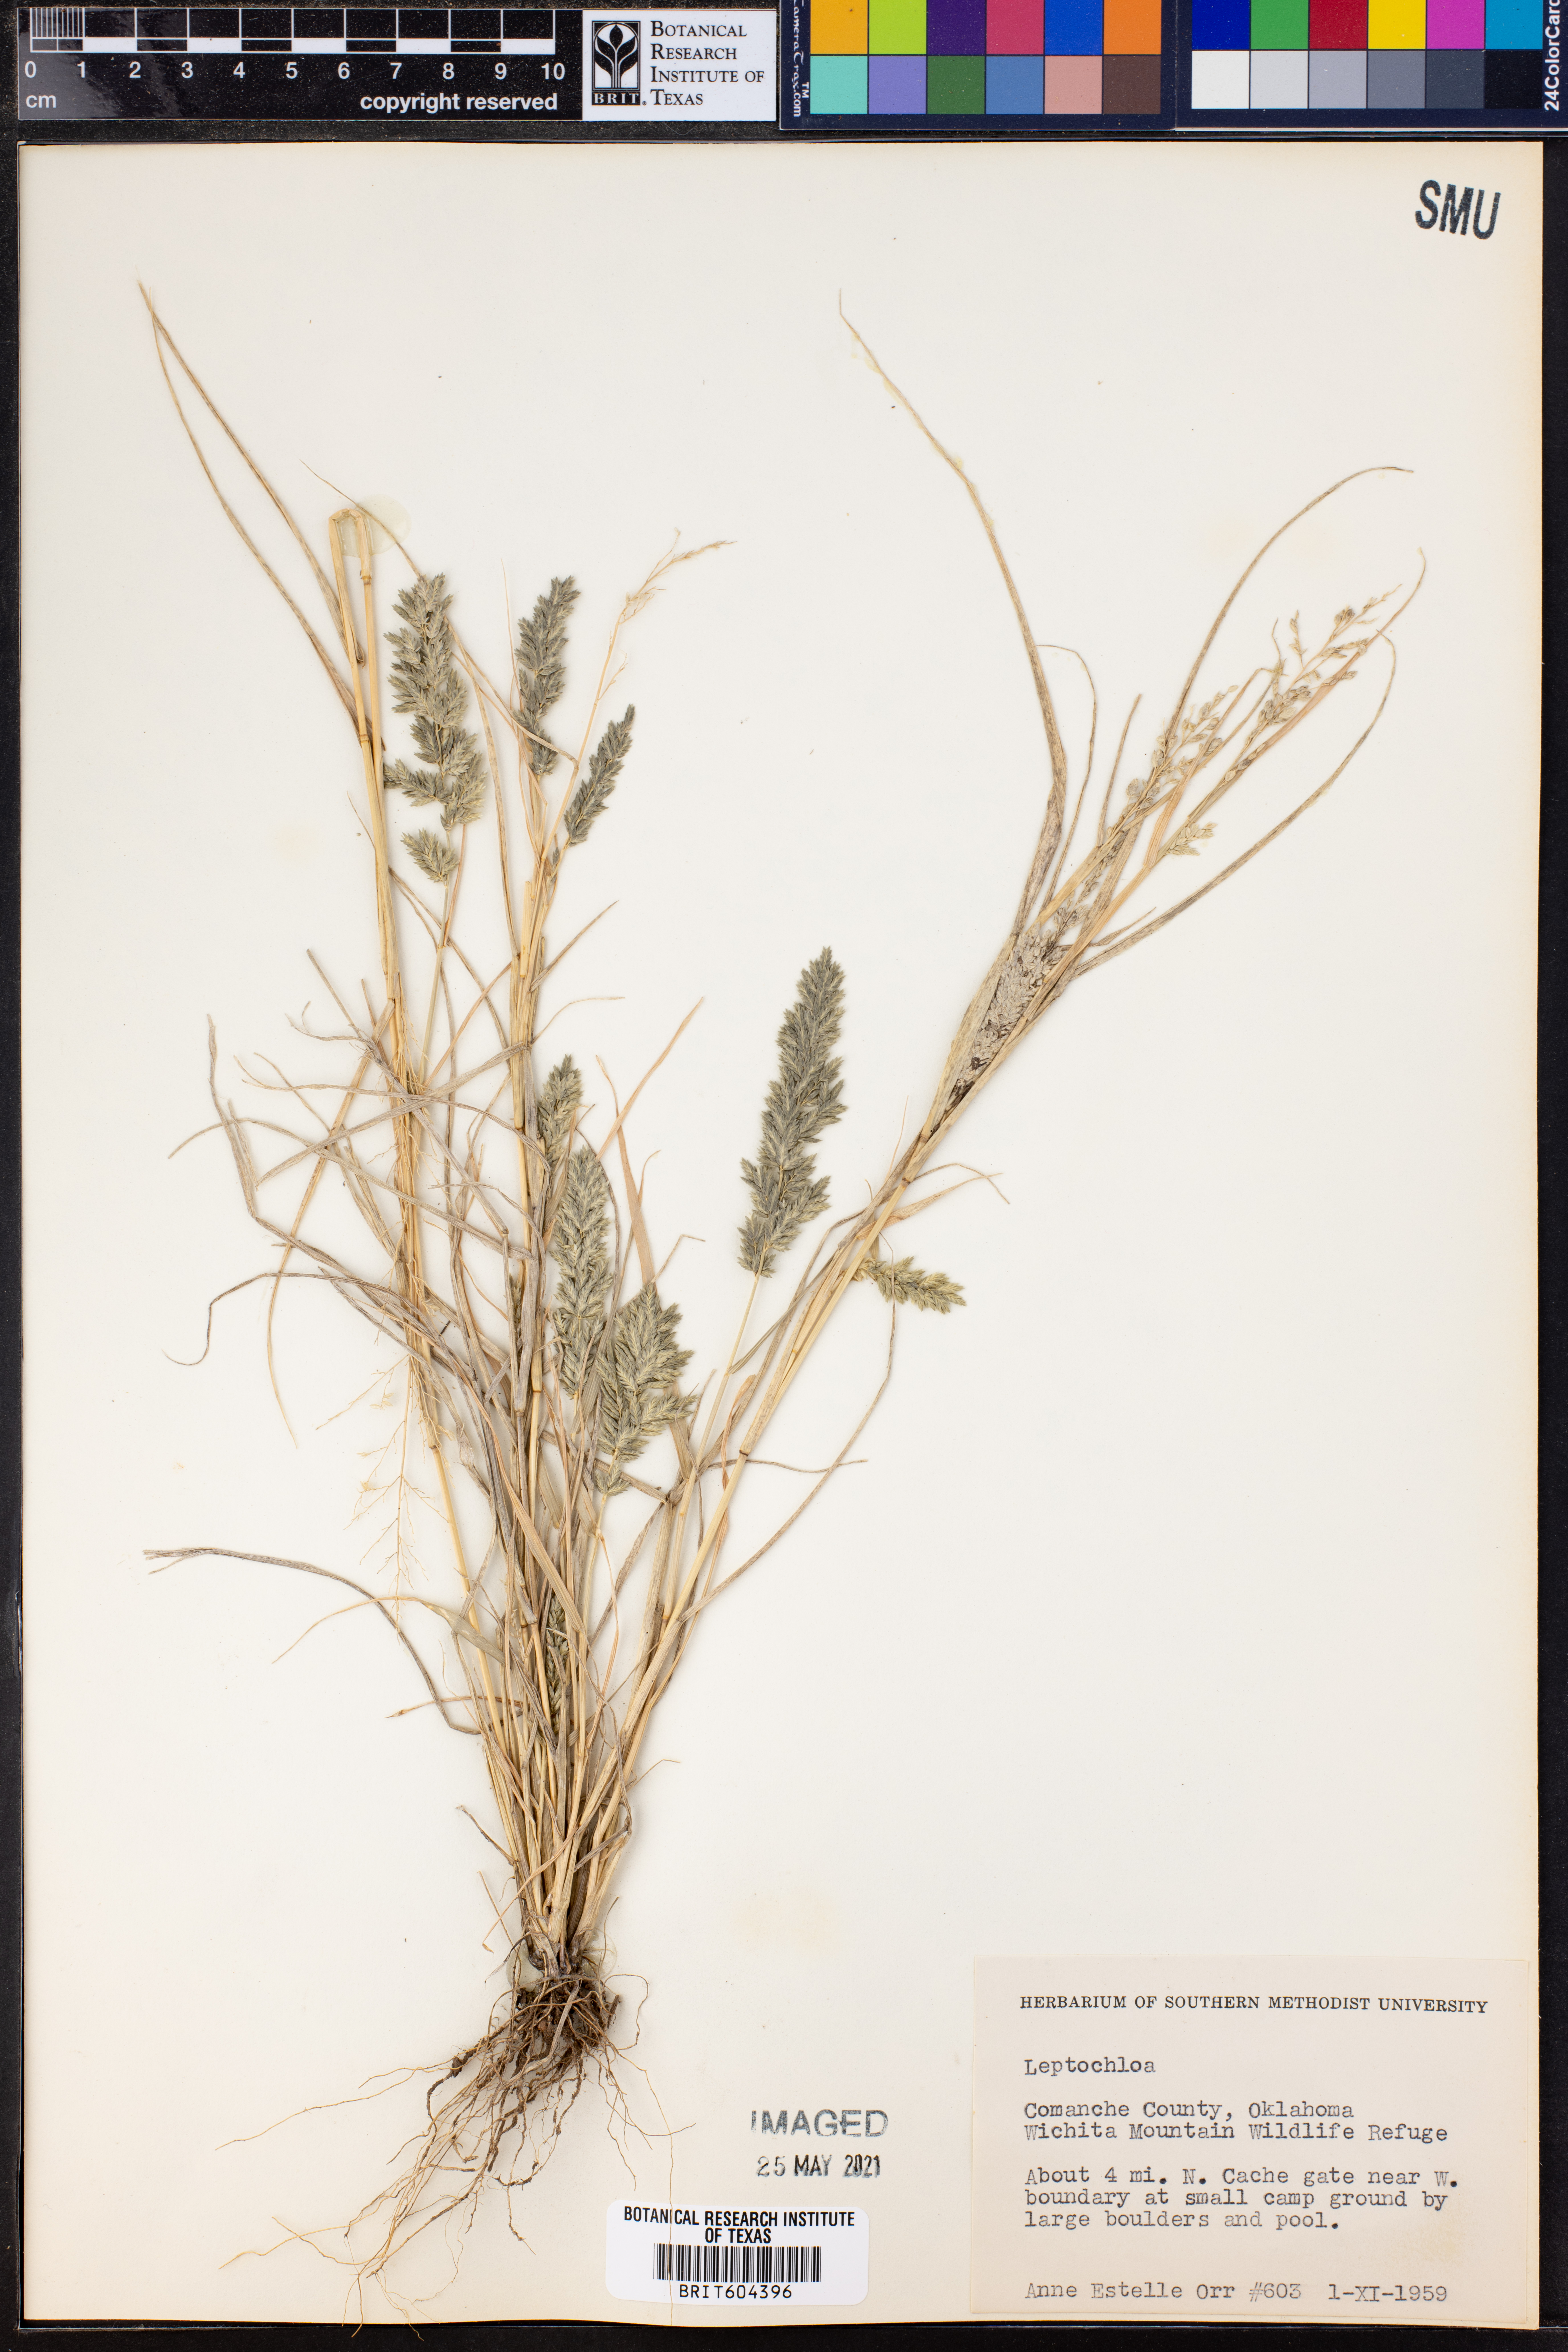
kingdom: Plantae
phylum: Tracheophyta
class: Liliopsida
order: Poales
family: Poaceae
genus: Leptochloa
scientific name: Leptochloa
